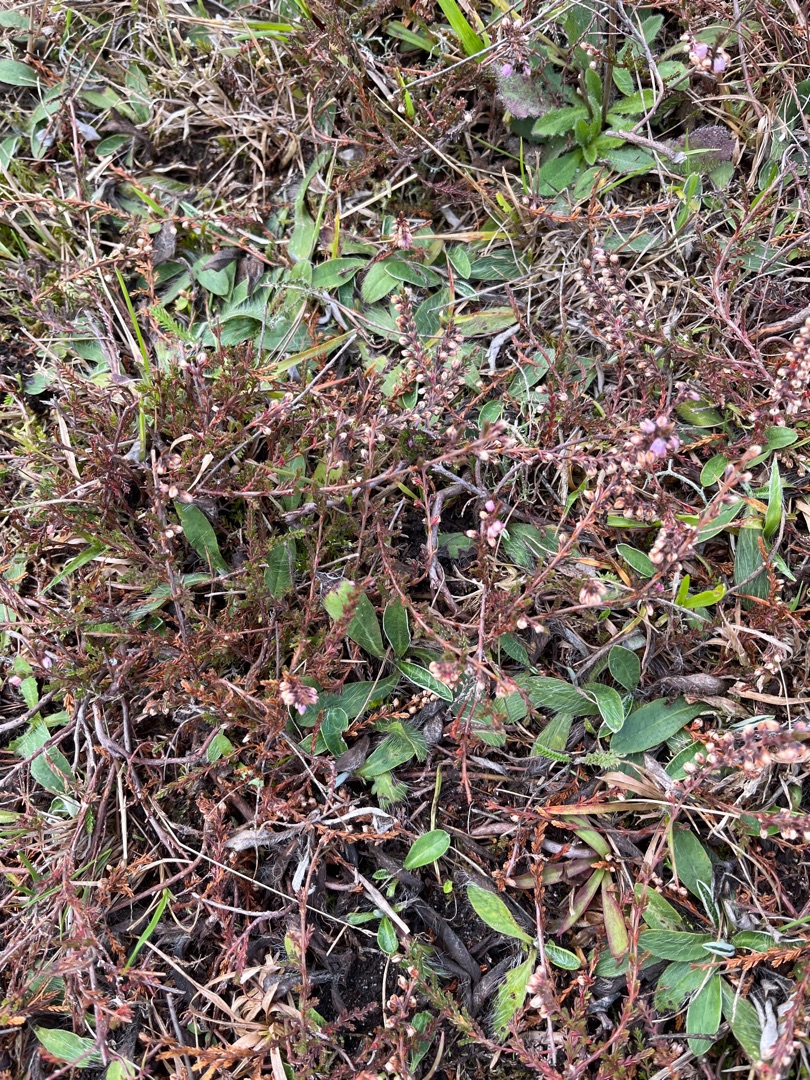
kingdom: Plantae
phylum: Tracheophyta
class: Magnoliopsida
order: Ericales
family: Ericaceae
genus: Calluna
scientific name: Calluna vulgaris
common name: Hedelyng
